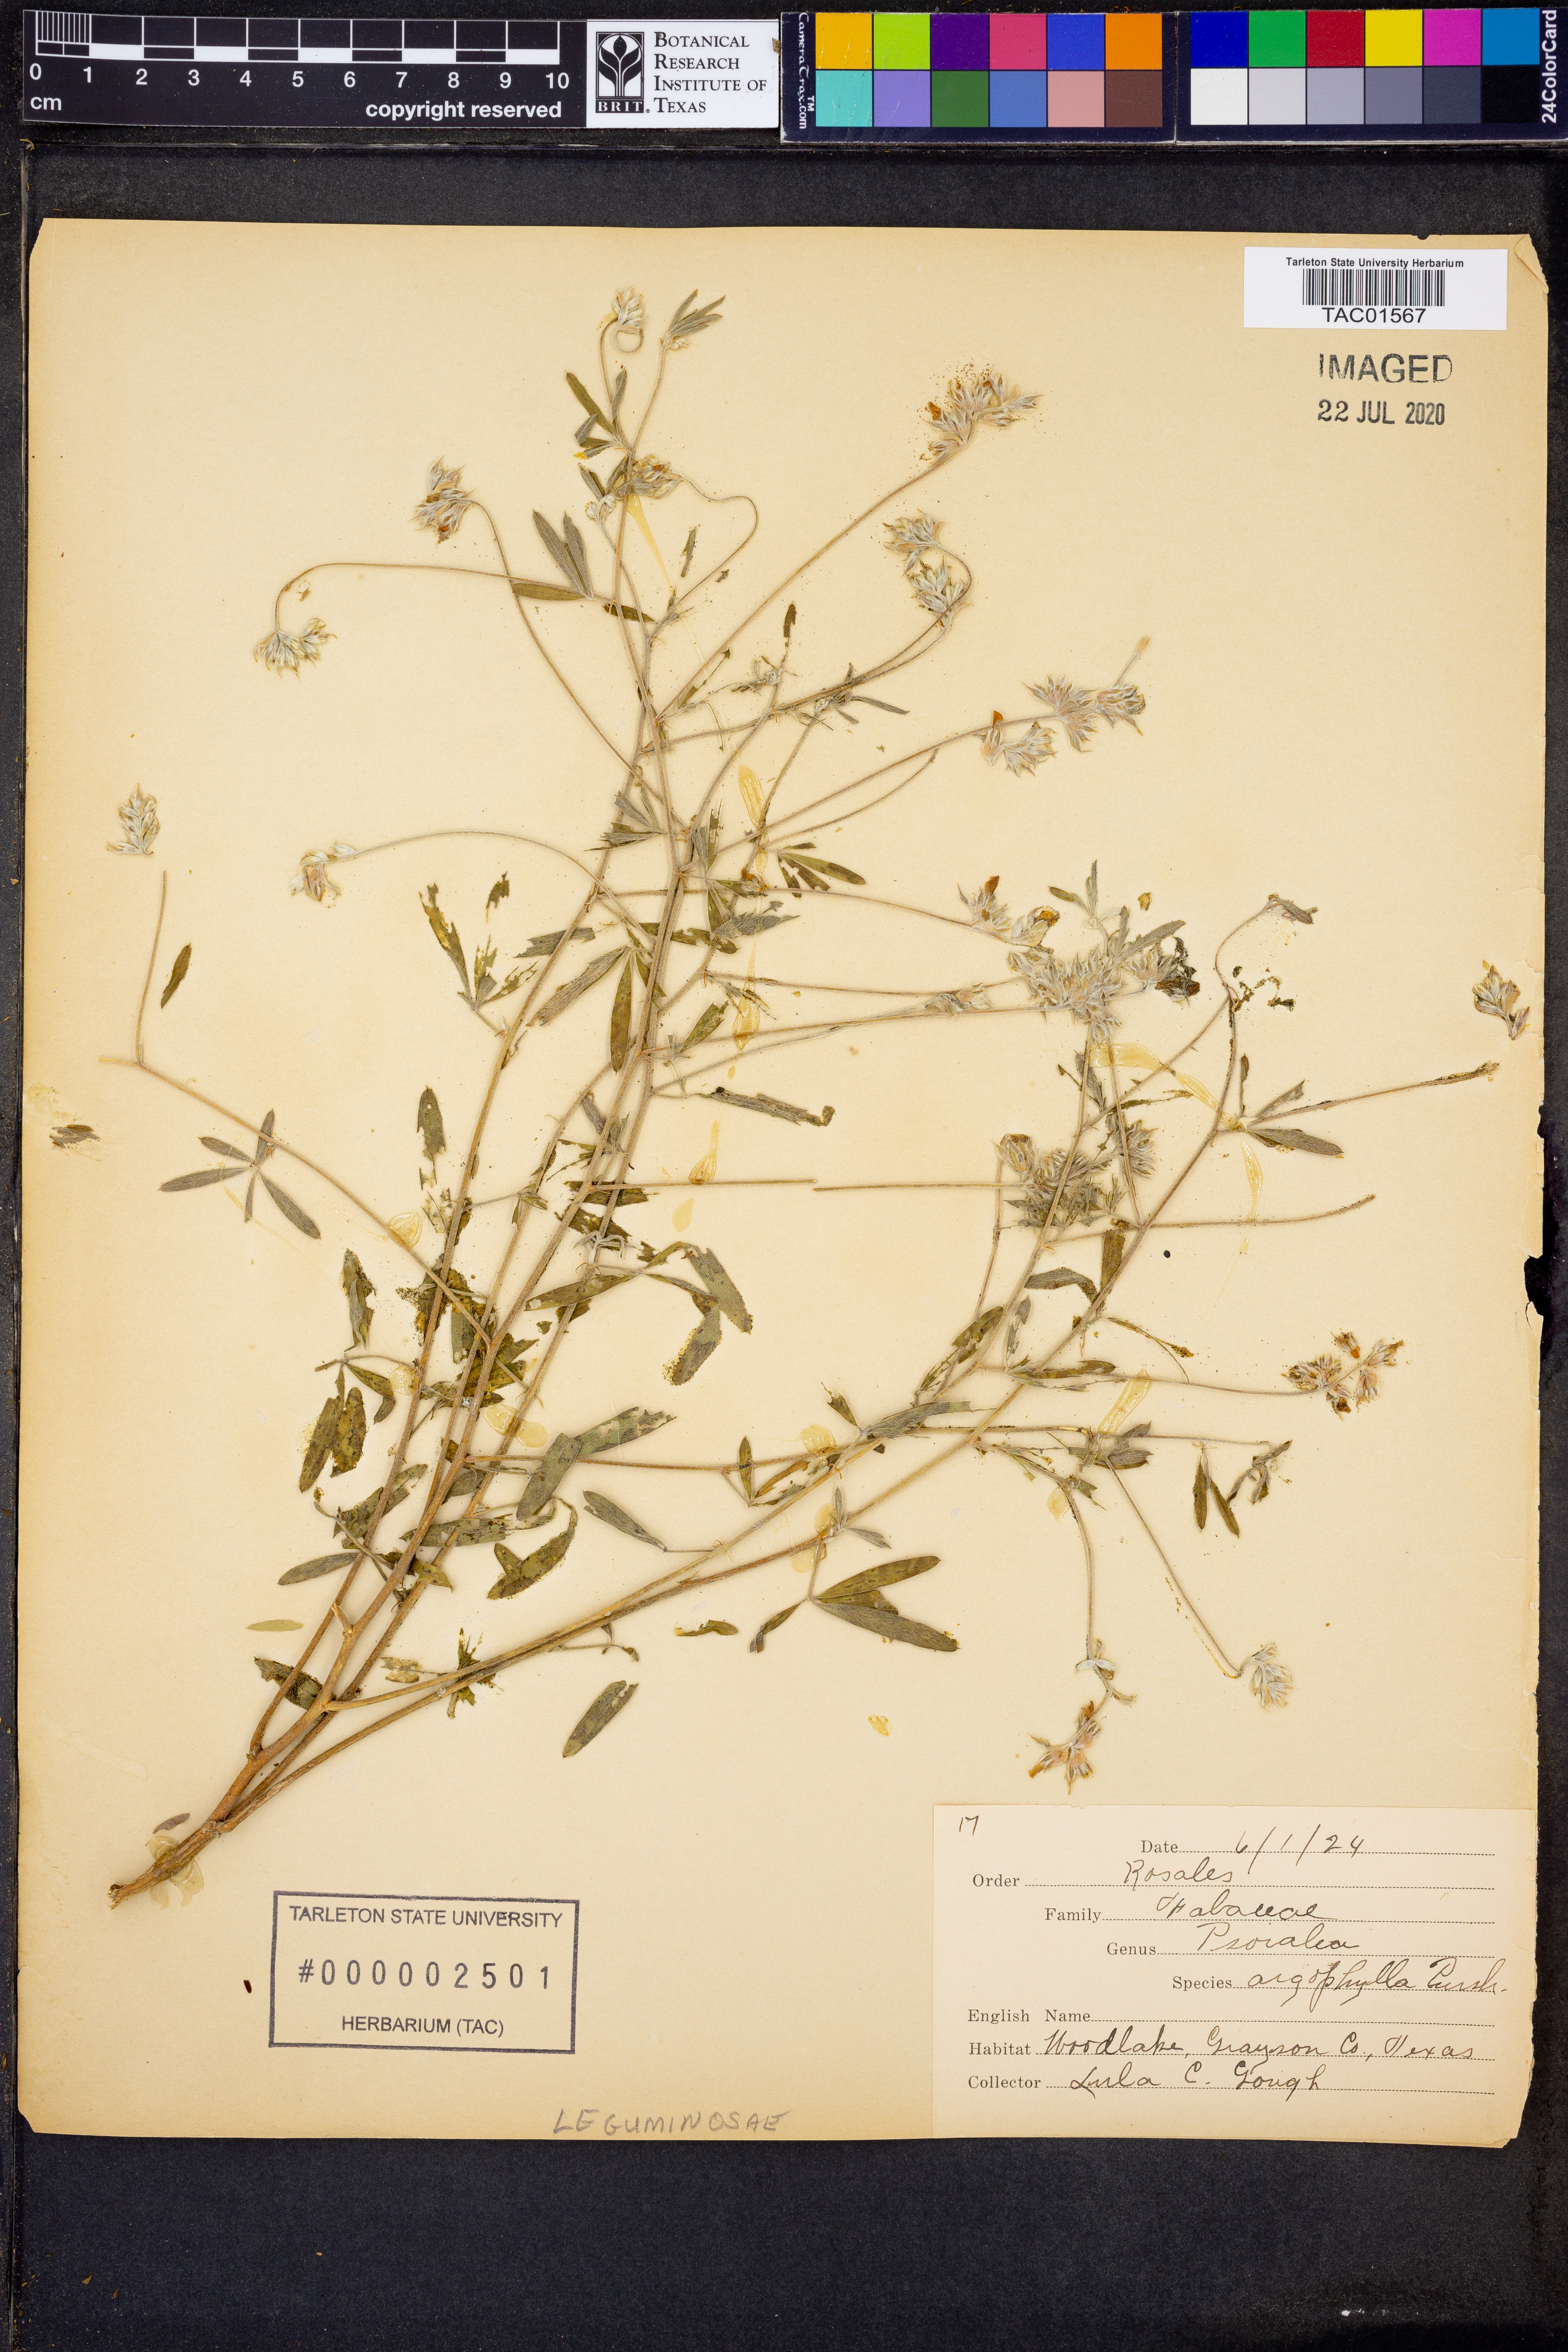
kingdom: Plantae
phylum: Tracheophyta
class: Magnoliopsida
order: Fabales
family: Fabaceae
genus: Pediomelum
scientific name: Pediomelum argophyllum
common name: Silver-leaved indian breadroot
